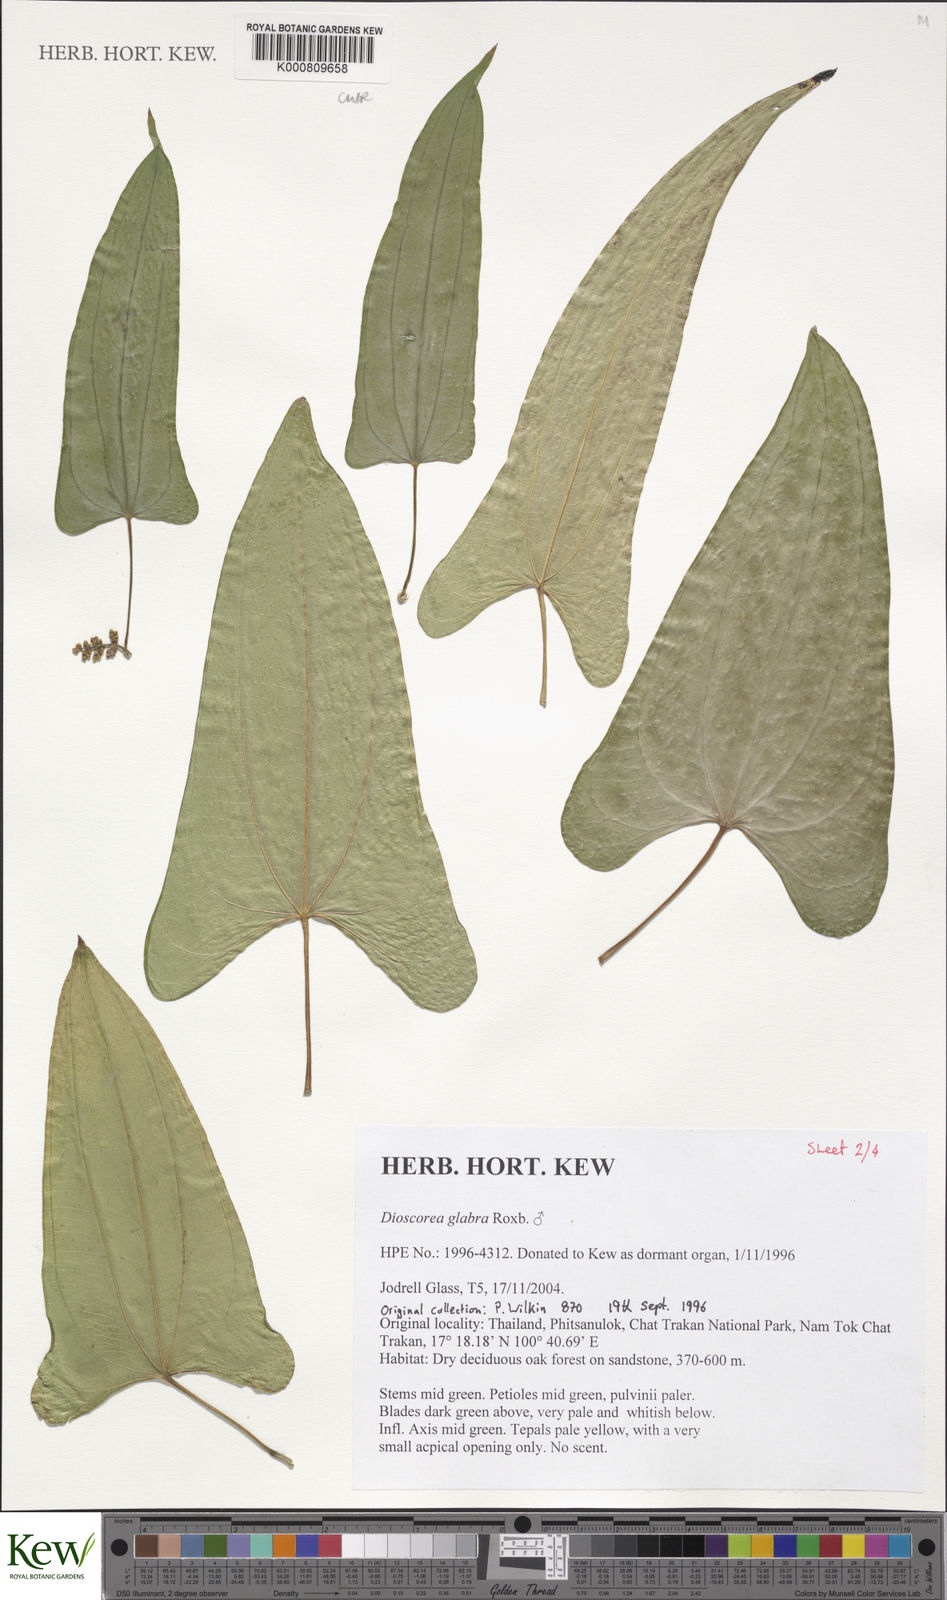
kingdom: Plantae
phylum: Tracheophyta
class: Liliopsida
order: Dioscoreales
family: Dioscoreaceae
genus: Dioscorea
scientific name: Dioscorea glabra
